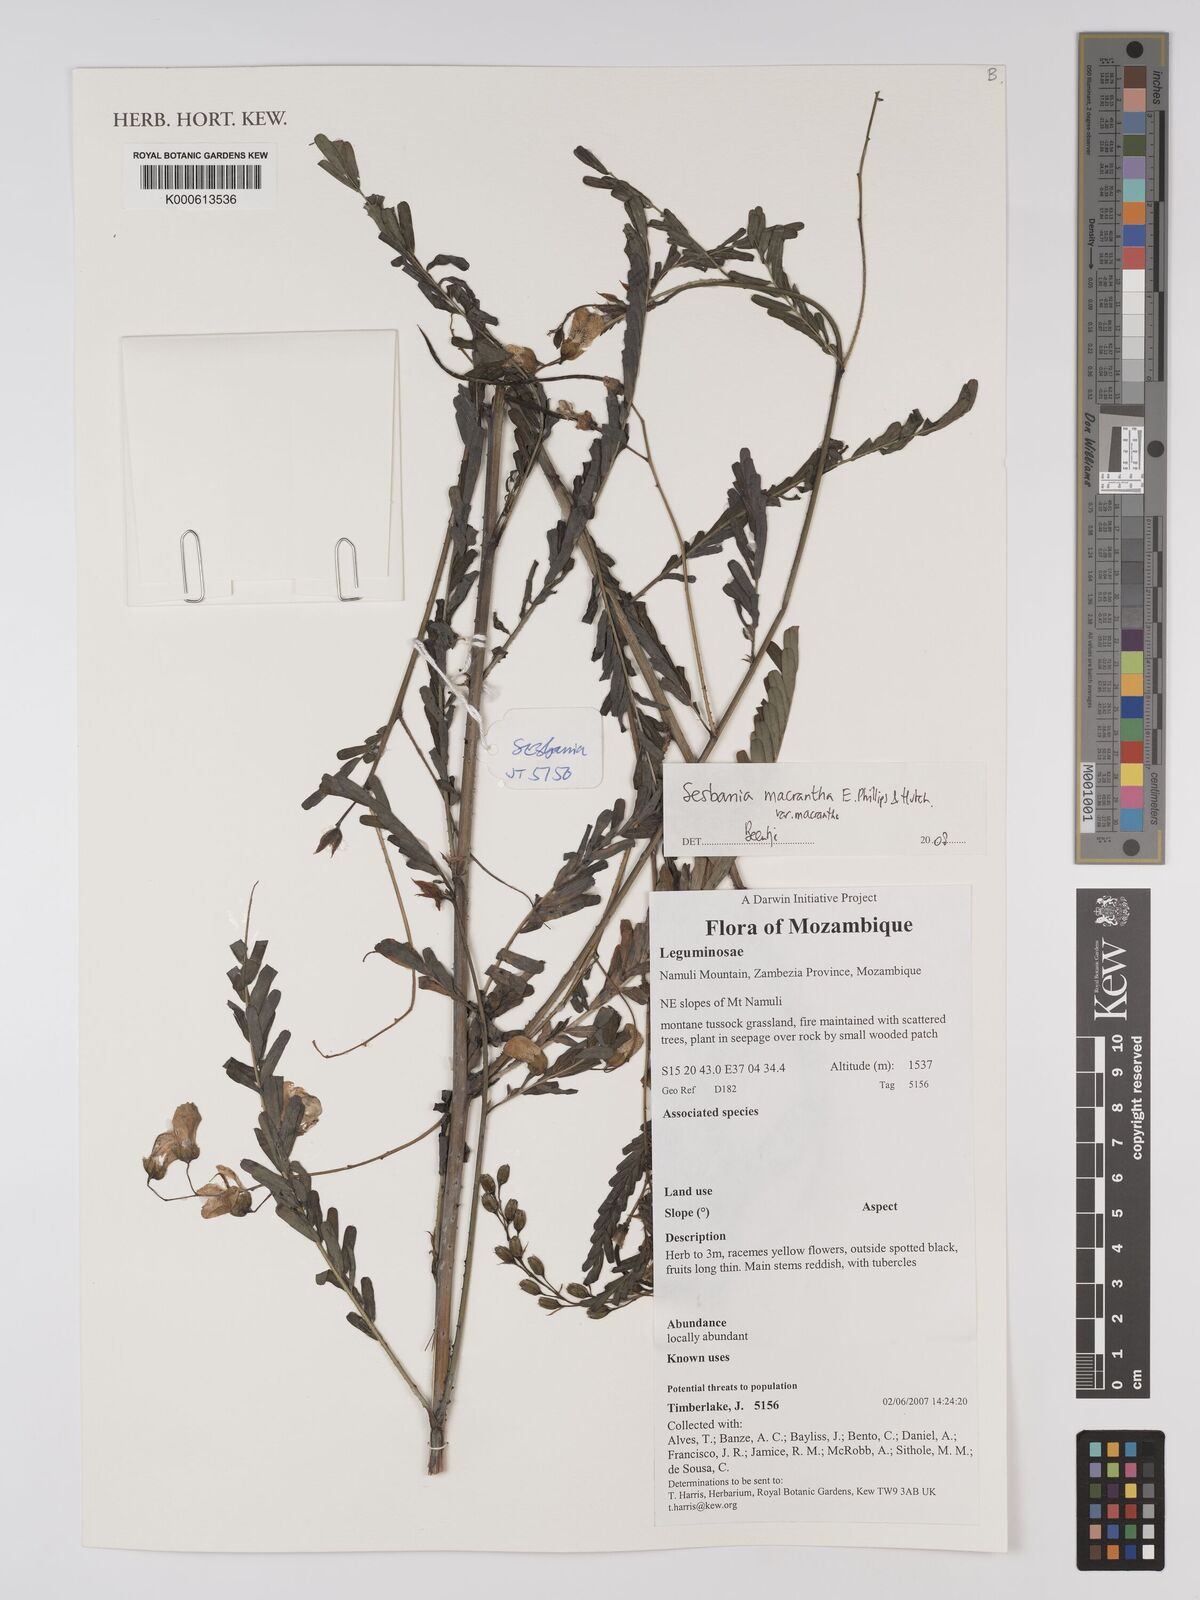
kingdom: Plantae
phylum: Tracheophyta
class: Magnoliopsida
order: Fabales
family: Fabaceae
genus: Sesbania
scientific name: Sesbania macrantha
